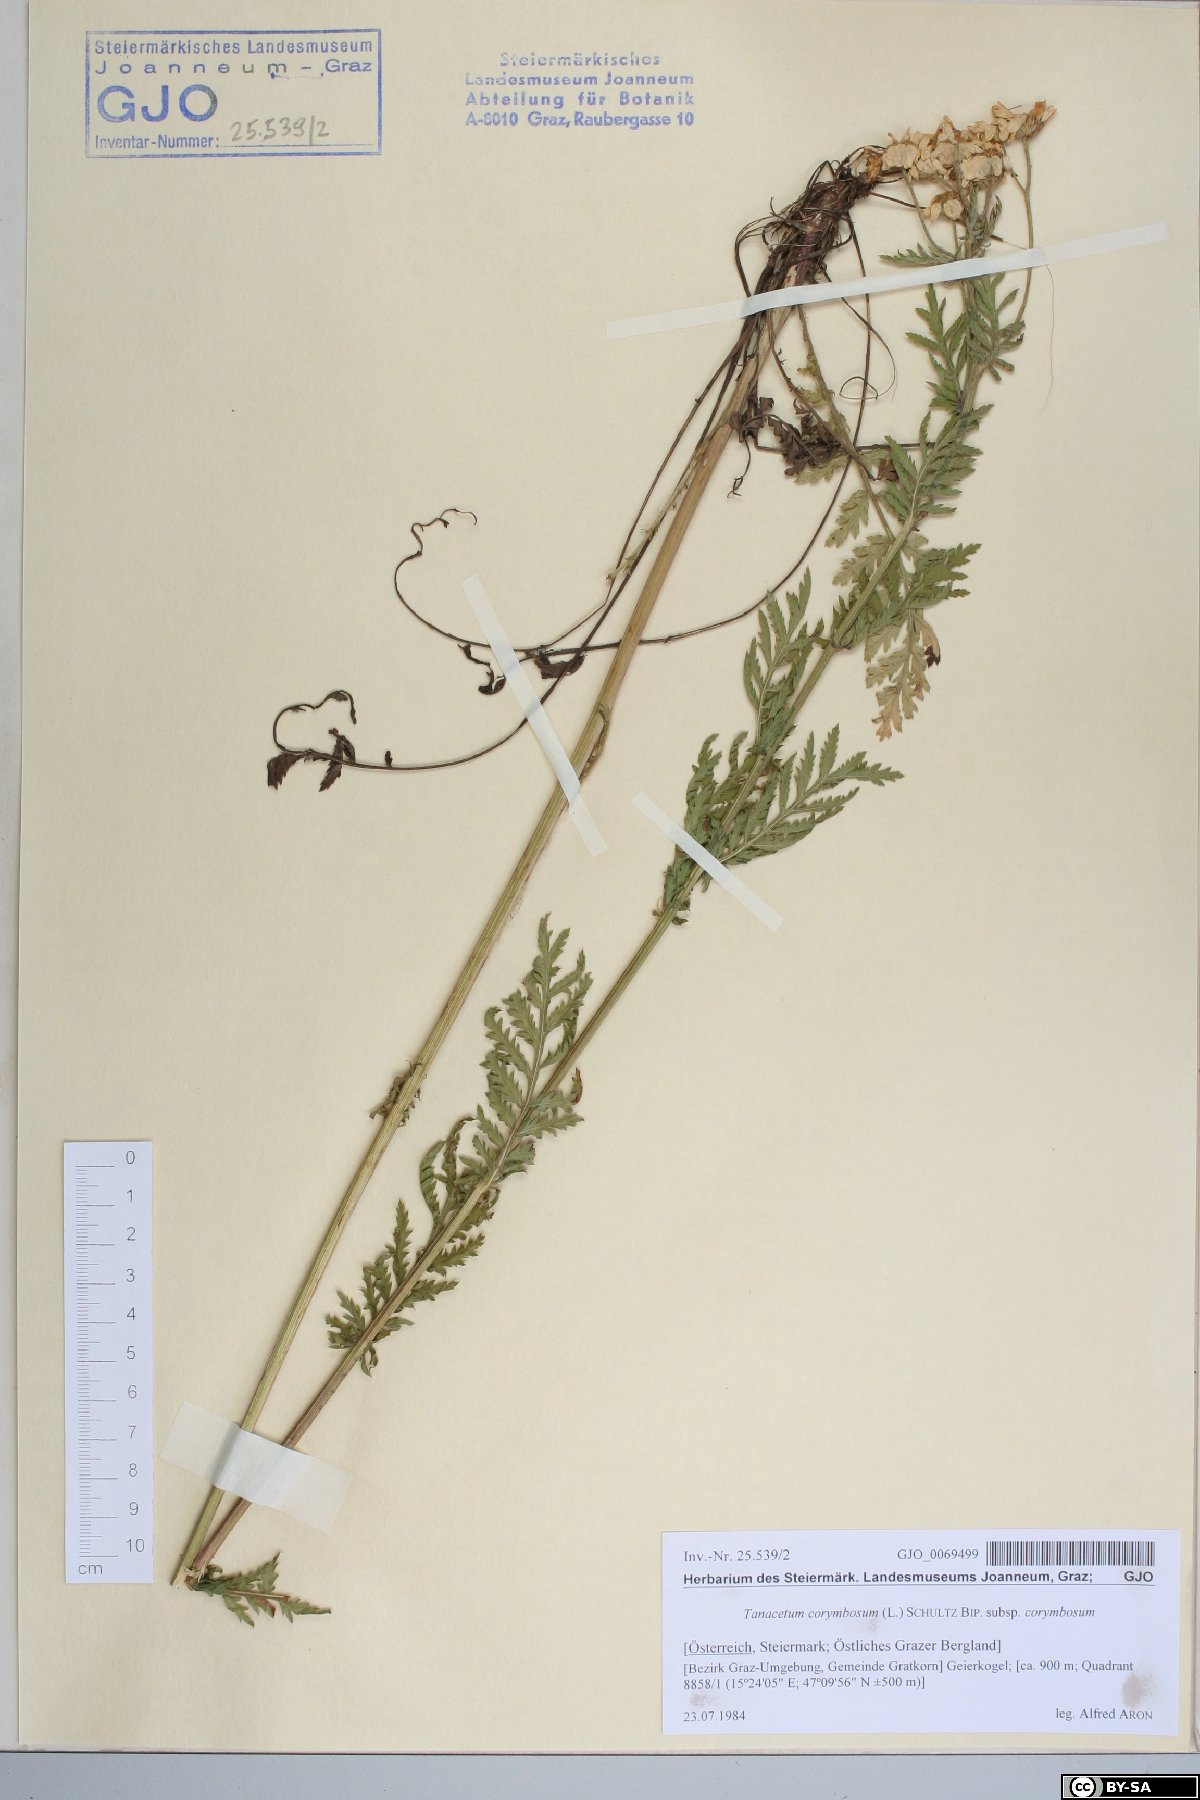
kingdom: Plantae
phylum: Tracheophyta
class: Magnoliopsida
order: Asterales
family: Asteraceae
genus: Tanacetum
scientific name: Tanacetum corymbosum
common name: Scentless feverfew
